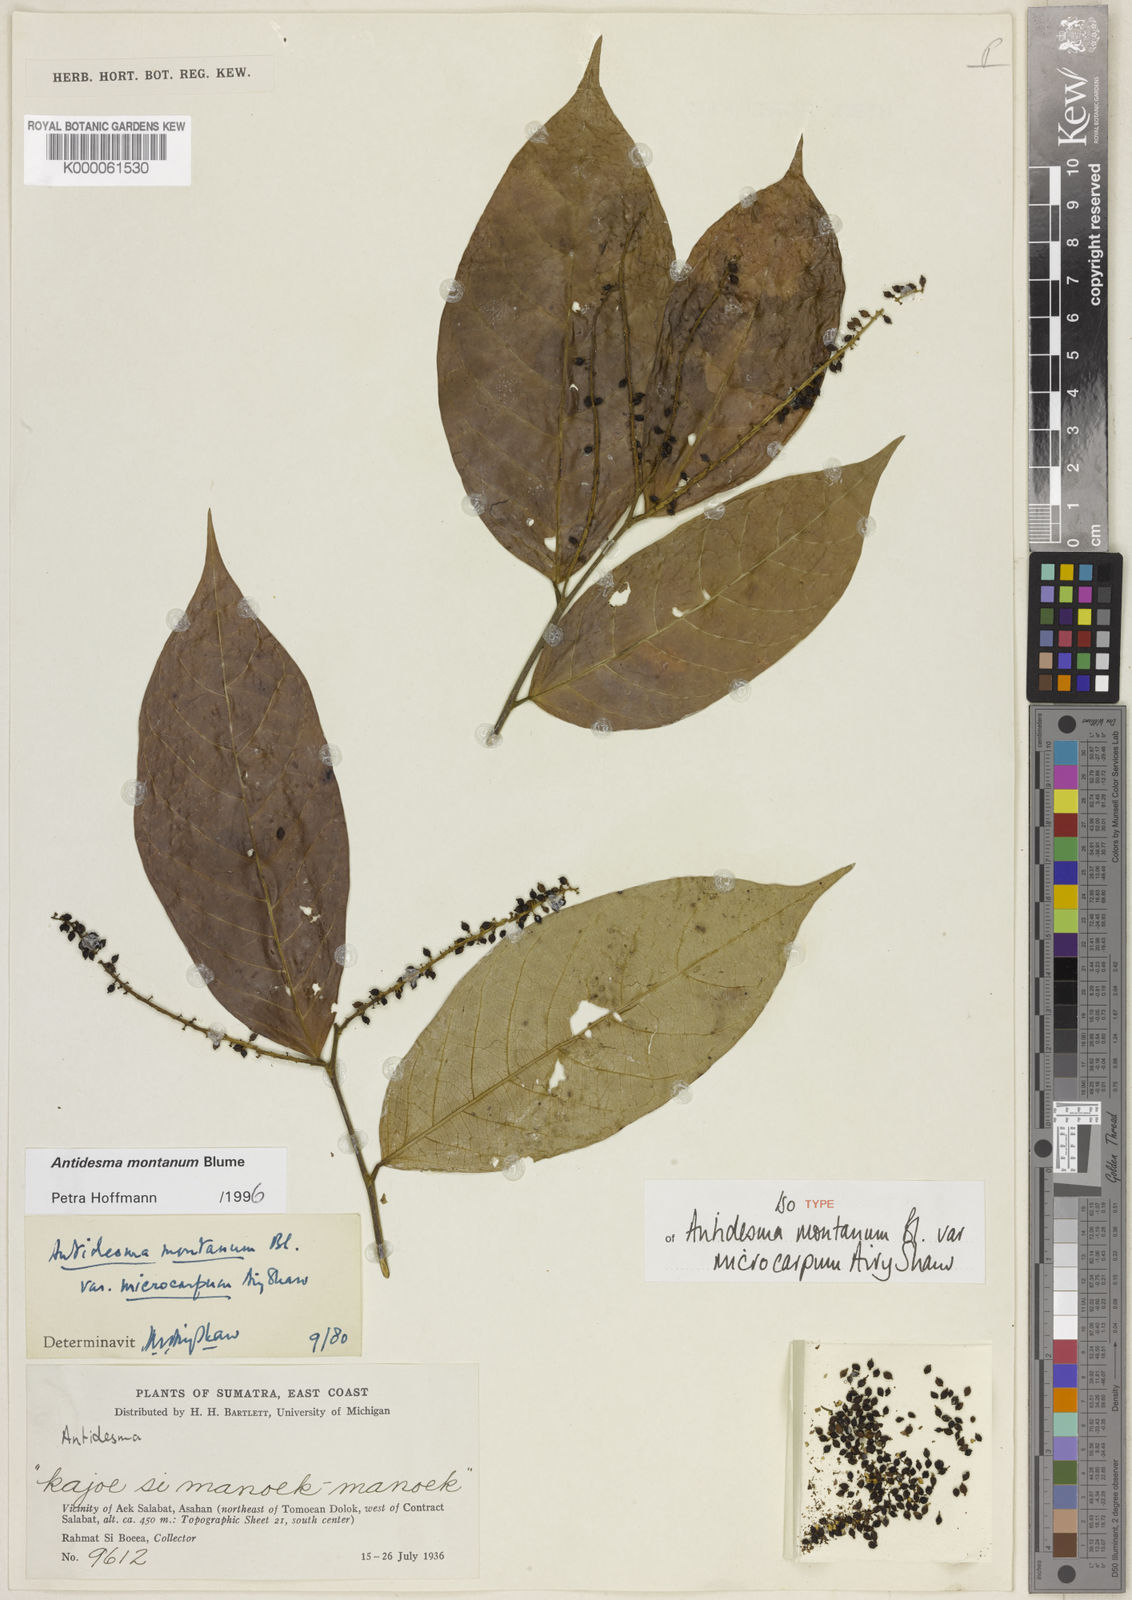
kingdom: Plantae
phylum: Tracheophyta
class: Magnoliopsida
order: Malpighiales
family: Phyllanthaceae
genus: Antidesma
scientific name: Antidesma montanum
